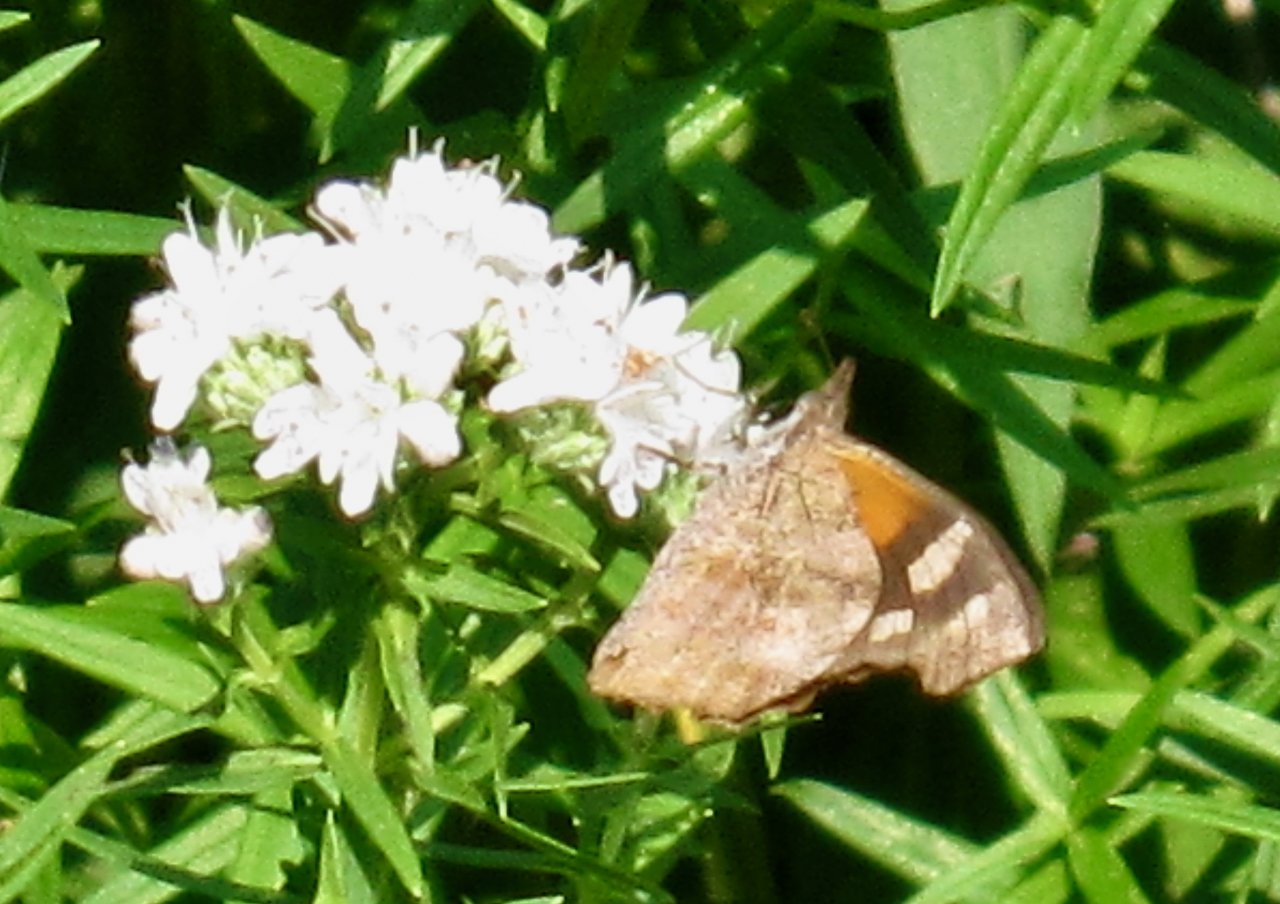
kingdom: Animalia
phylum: Arthropoda
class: Insecta
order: Lepidoptera
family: Nymphalidae
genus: Libytheana
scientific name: Libytheana carinenta
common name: American Snout
